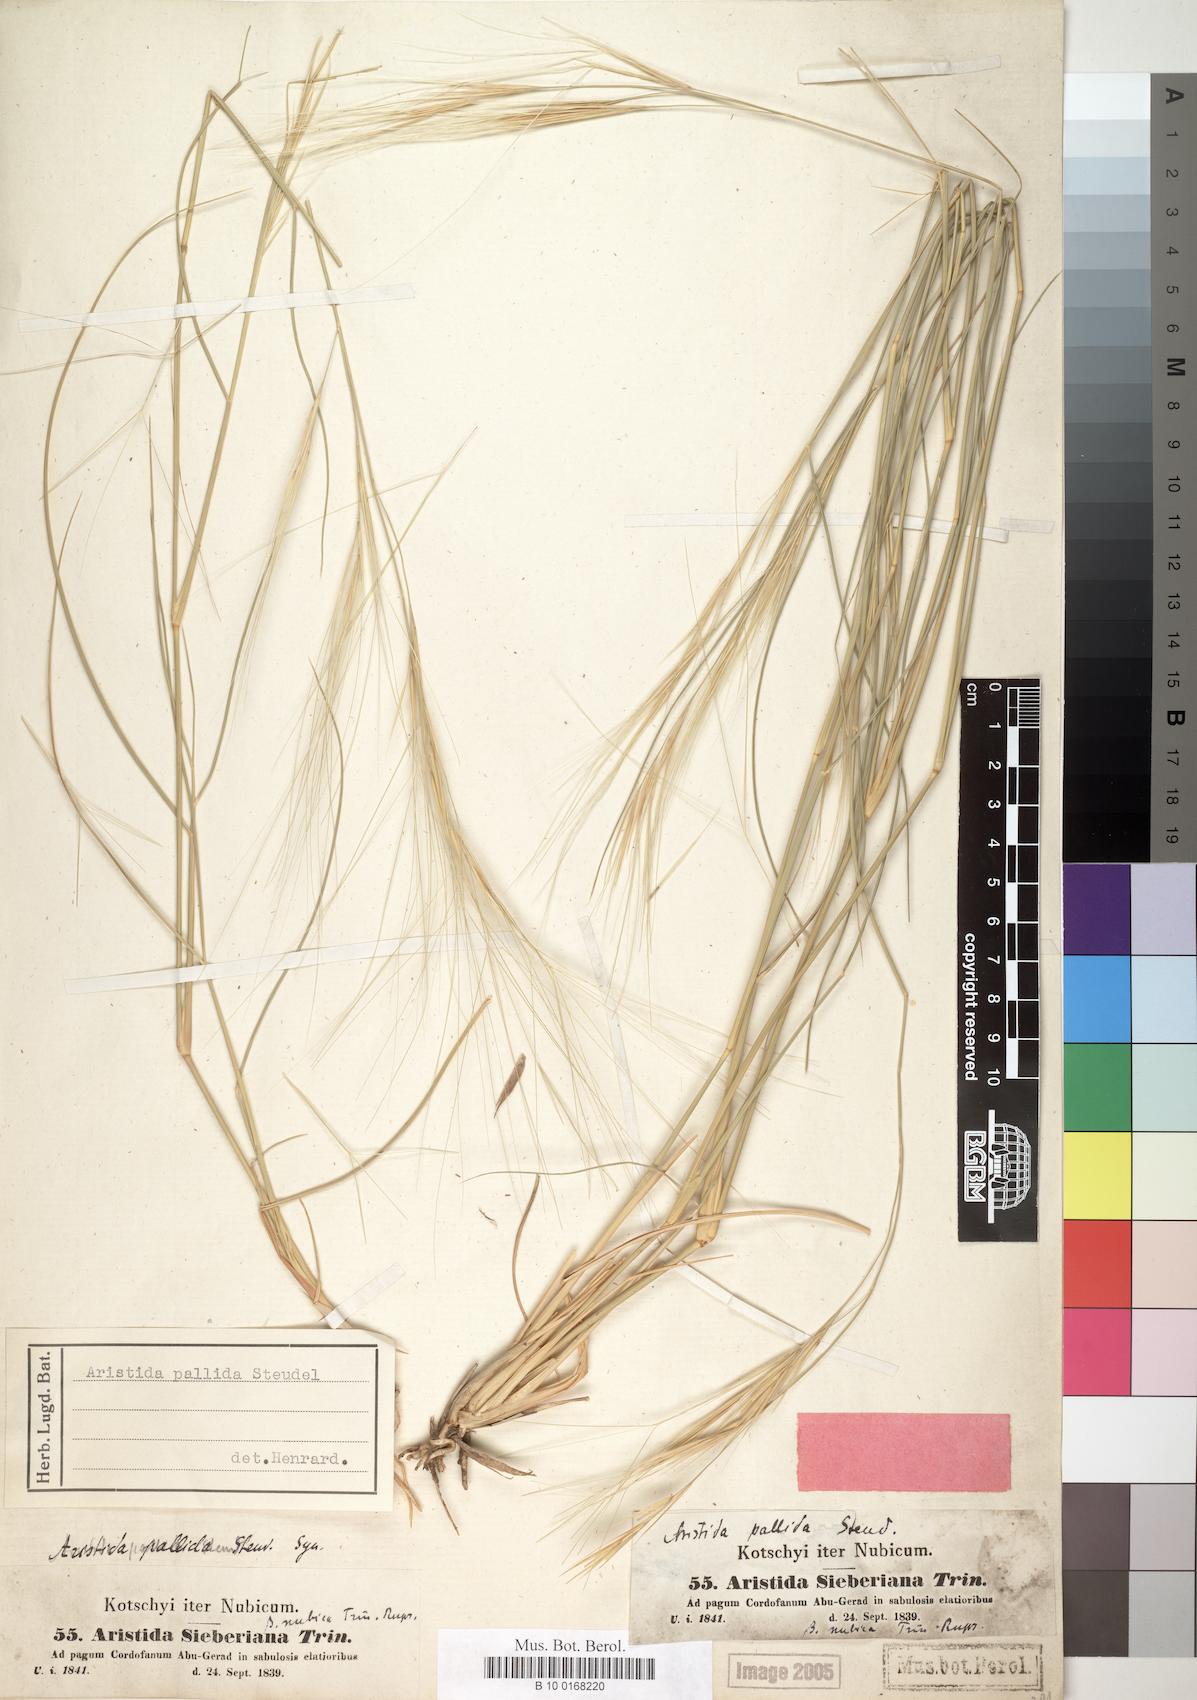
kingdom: Plantae
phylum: Tracheophyta
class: Liliopsida
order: Poales
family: Poaceae
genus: Aristida
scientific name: Aristida sieberiana
